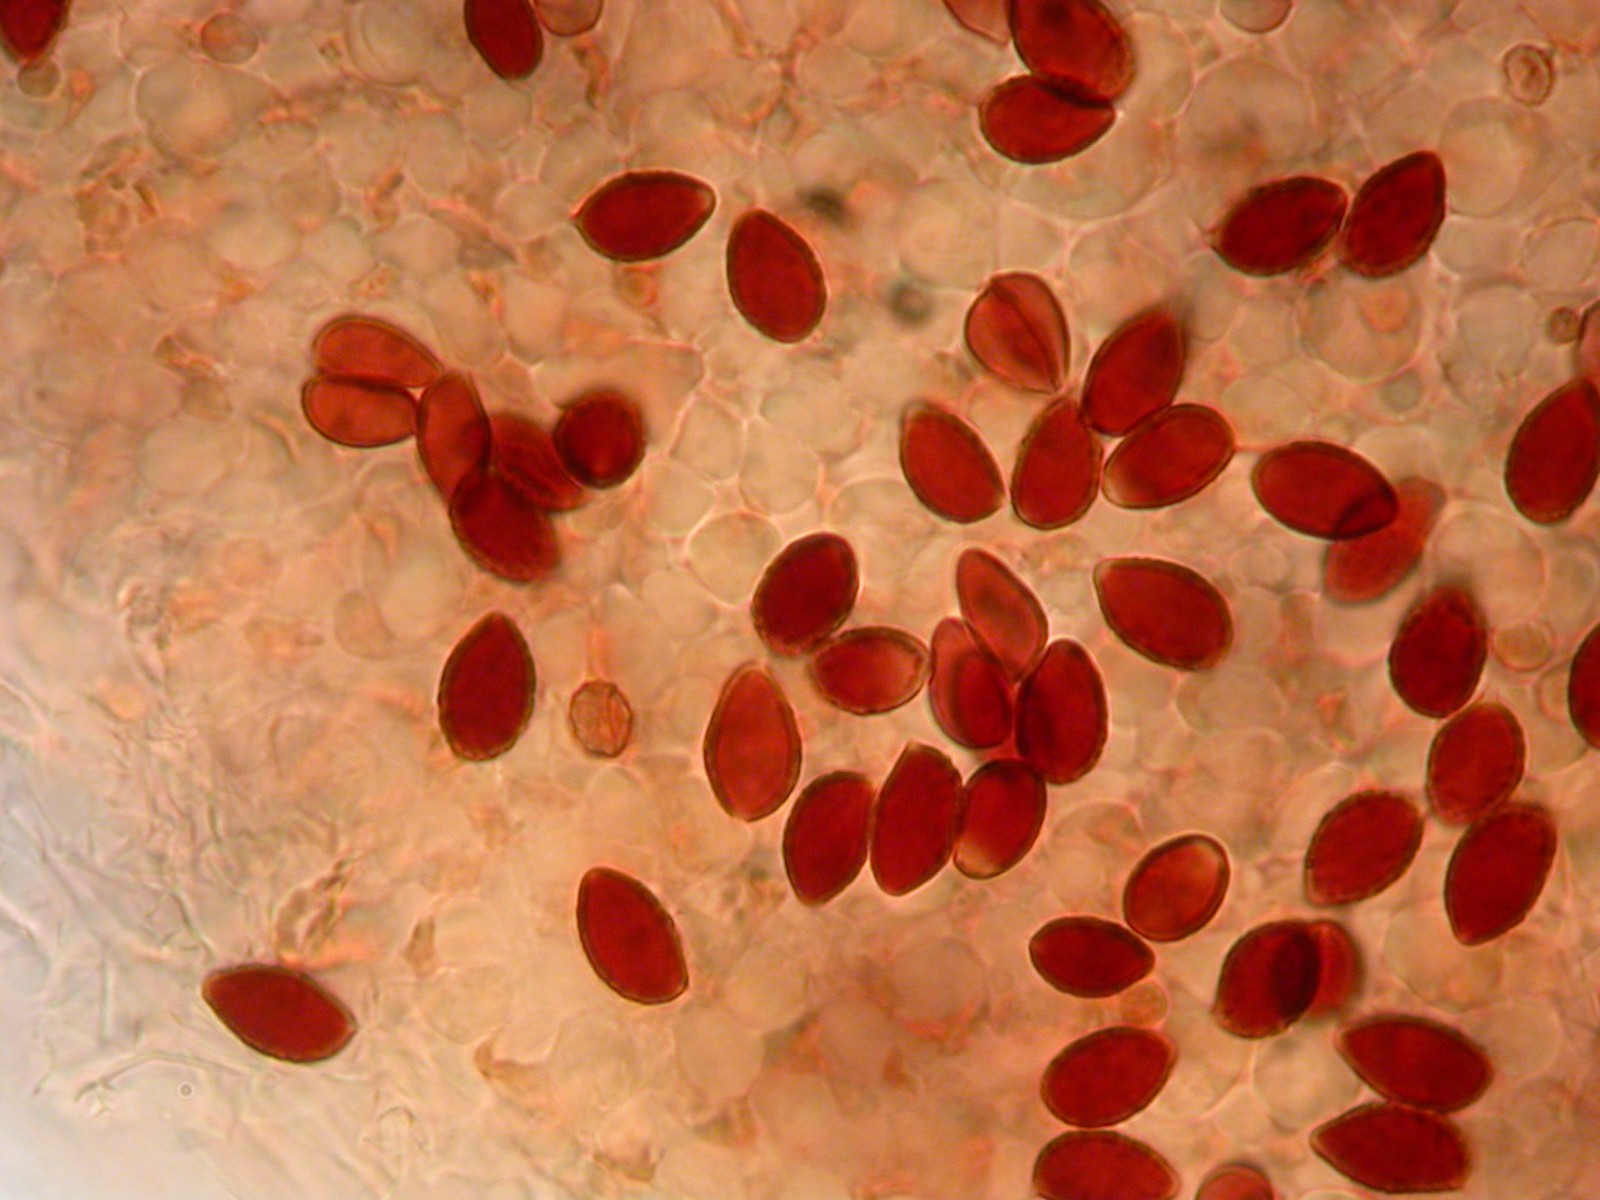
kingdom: Fungi
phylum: Basidiomycota
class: Agaricomycetes
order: Agaricales
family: Hymenogastraceae
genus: Galerina
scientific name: Galerina vittiformis
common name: Hairy leg bell
